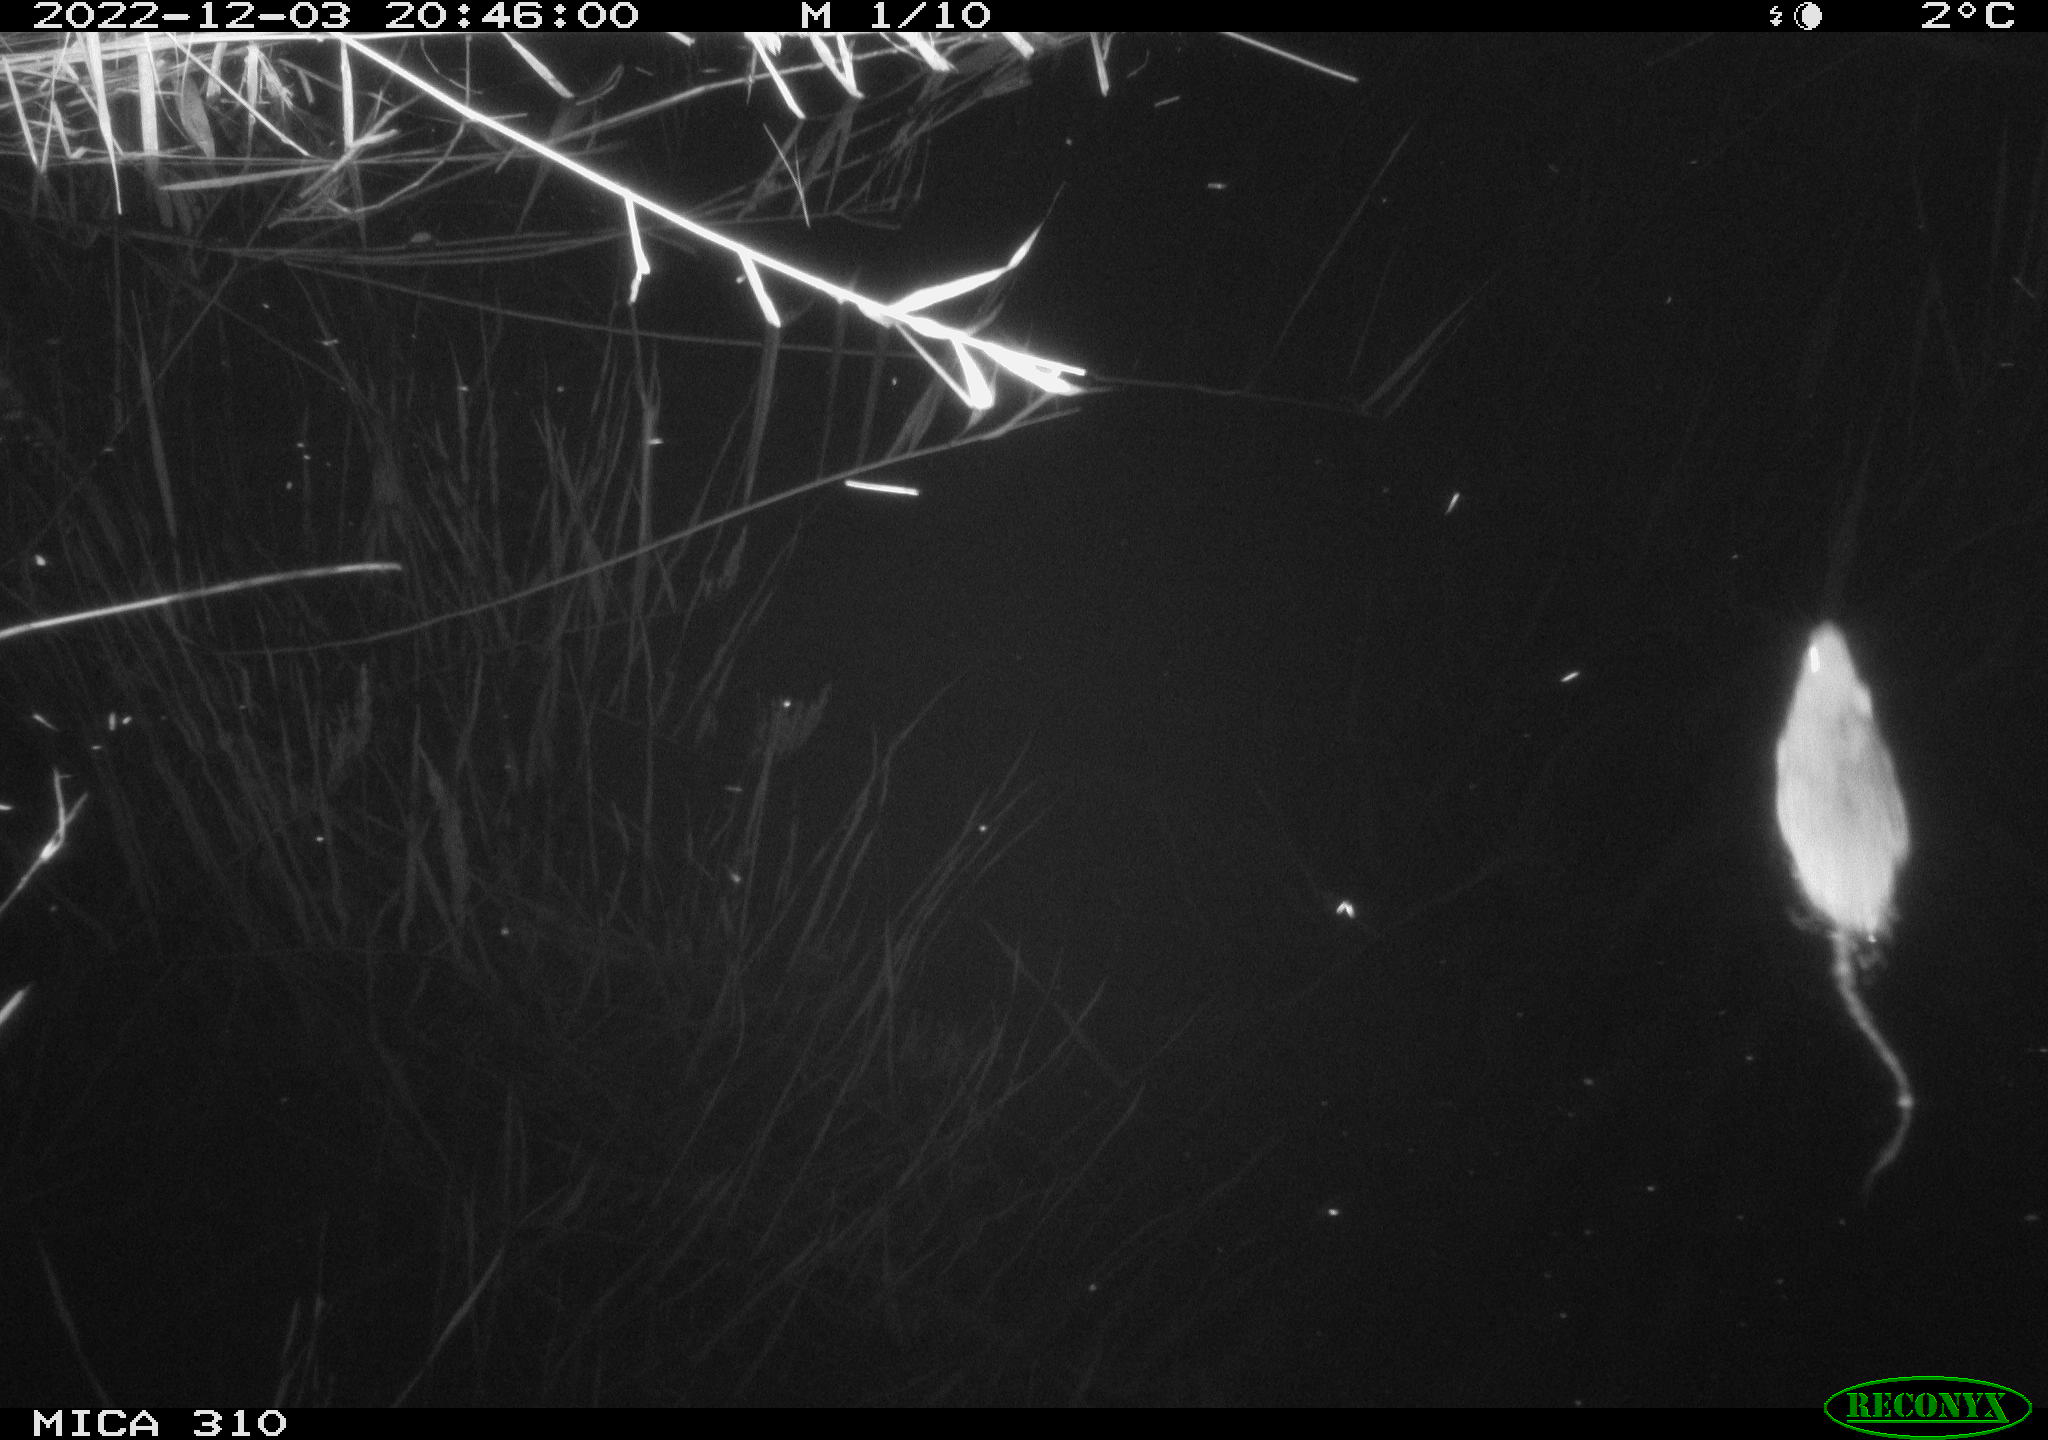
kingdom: Animalia
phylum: Chordata
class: Mammalia
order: Rodentia
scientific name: Rodentia
